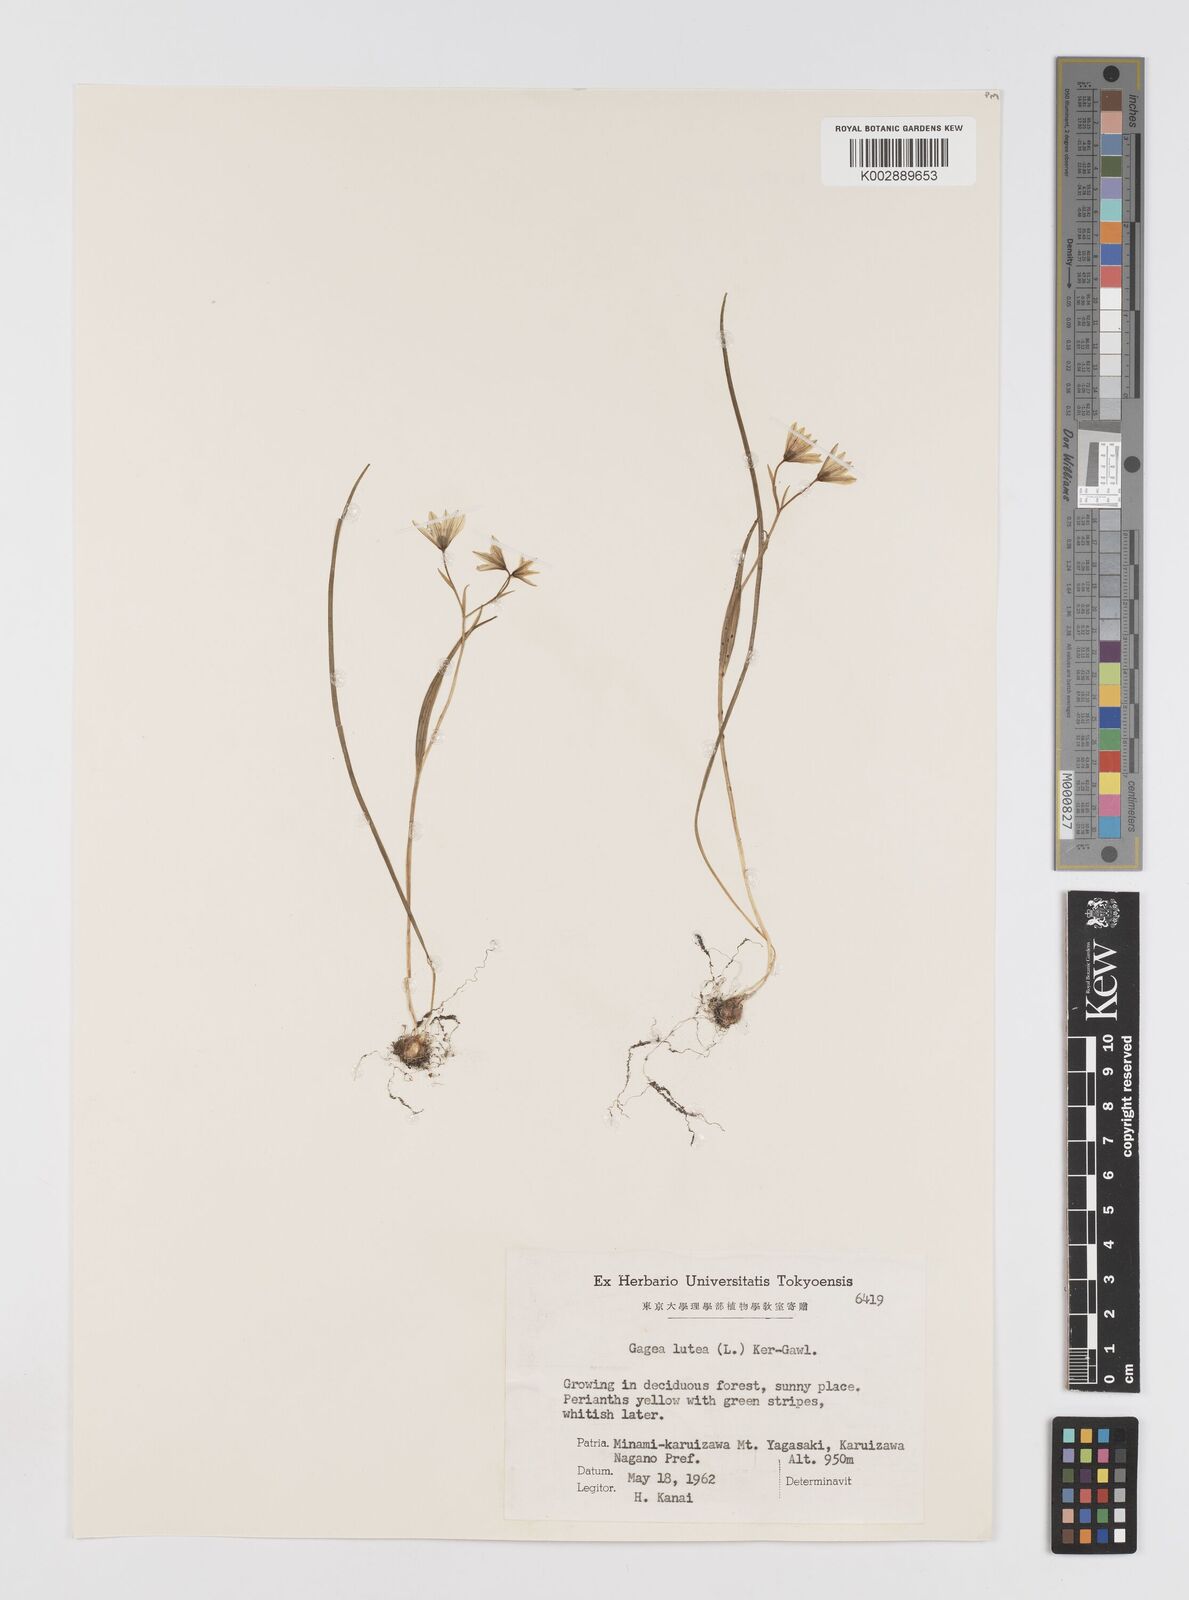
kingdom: Plantae
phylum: Tracheophyta
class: Liliopsida
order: Liliales
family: Liliaceae
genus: Gagea
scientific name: Gagea lutea
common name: Yellow star-of-bethlehem
